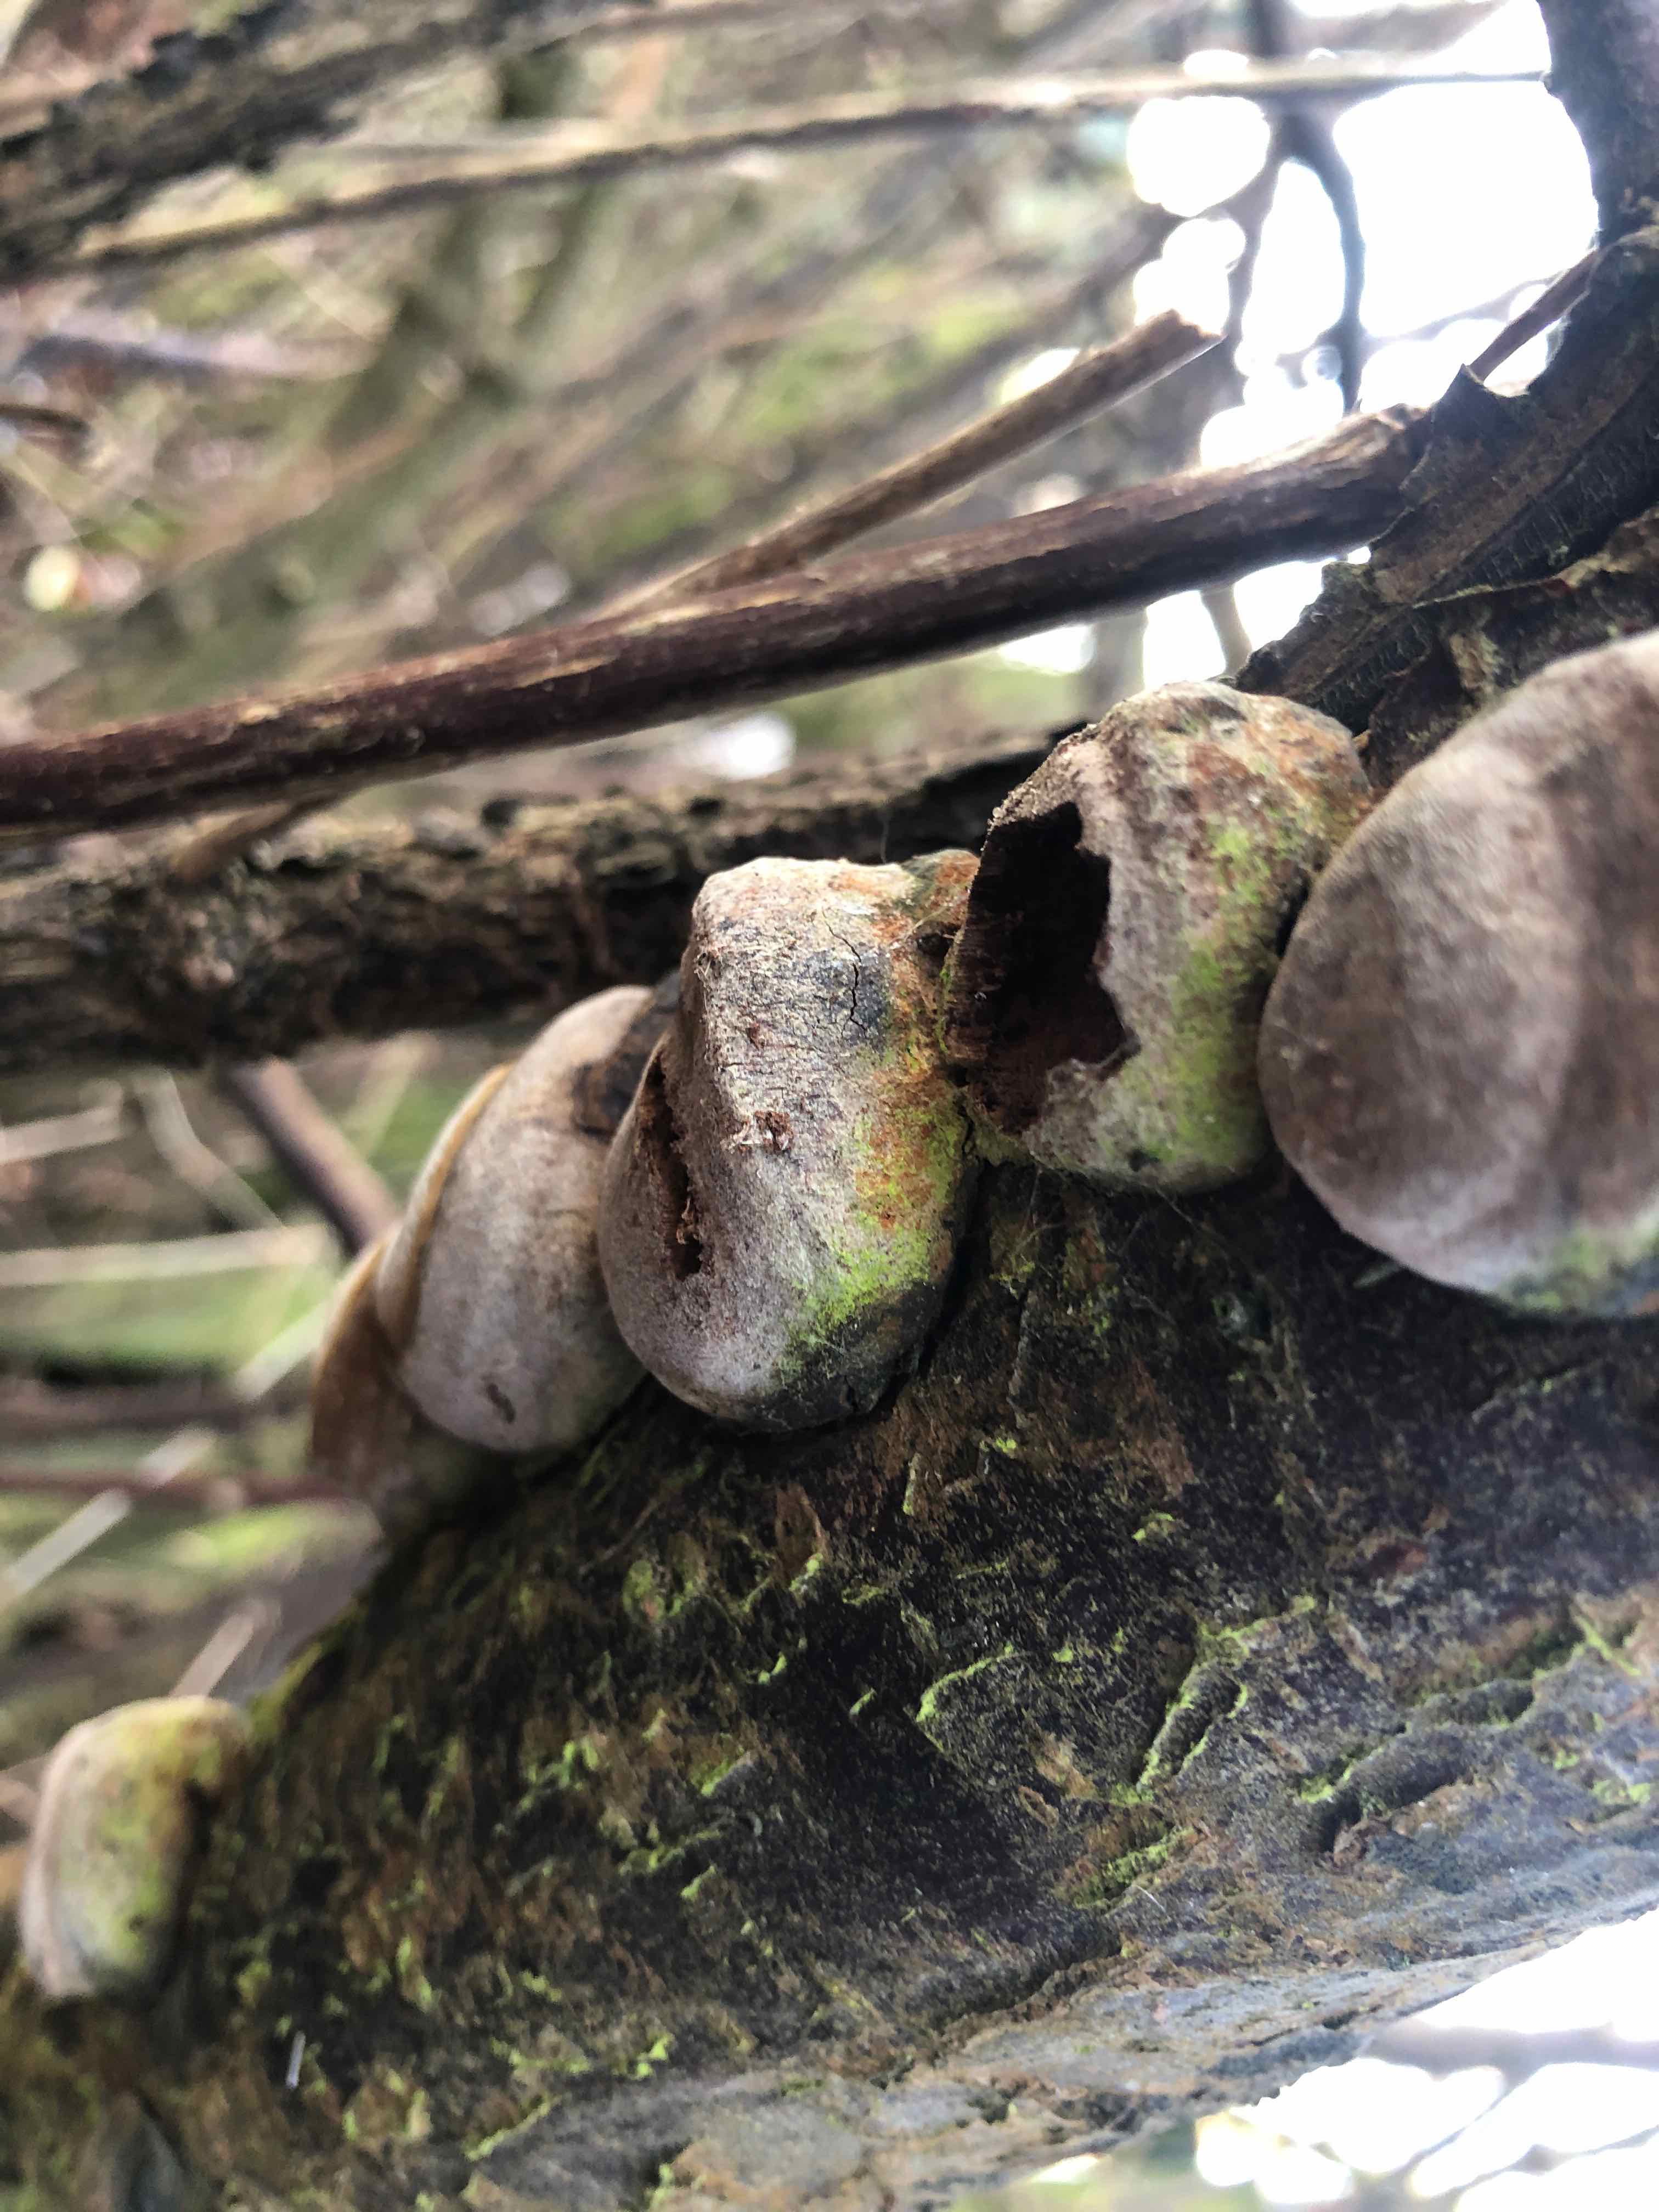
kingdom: Fungi
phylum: Basidiomycota
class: Agaricomycetes
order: Hymenochaetales
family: Hymenochaetaceae
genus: Phellinus
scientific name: Phellinus pomaceus
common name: blomme-ildporesvamp
